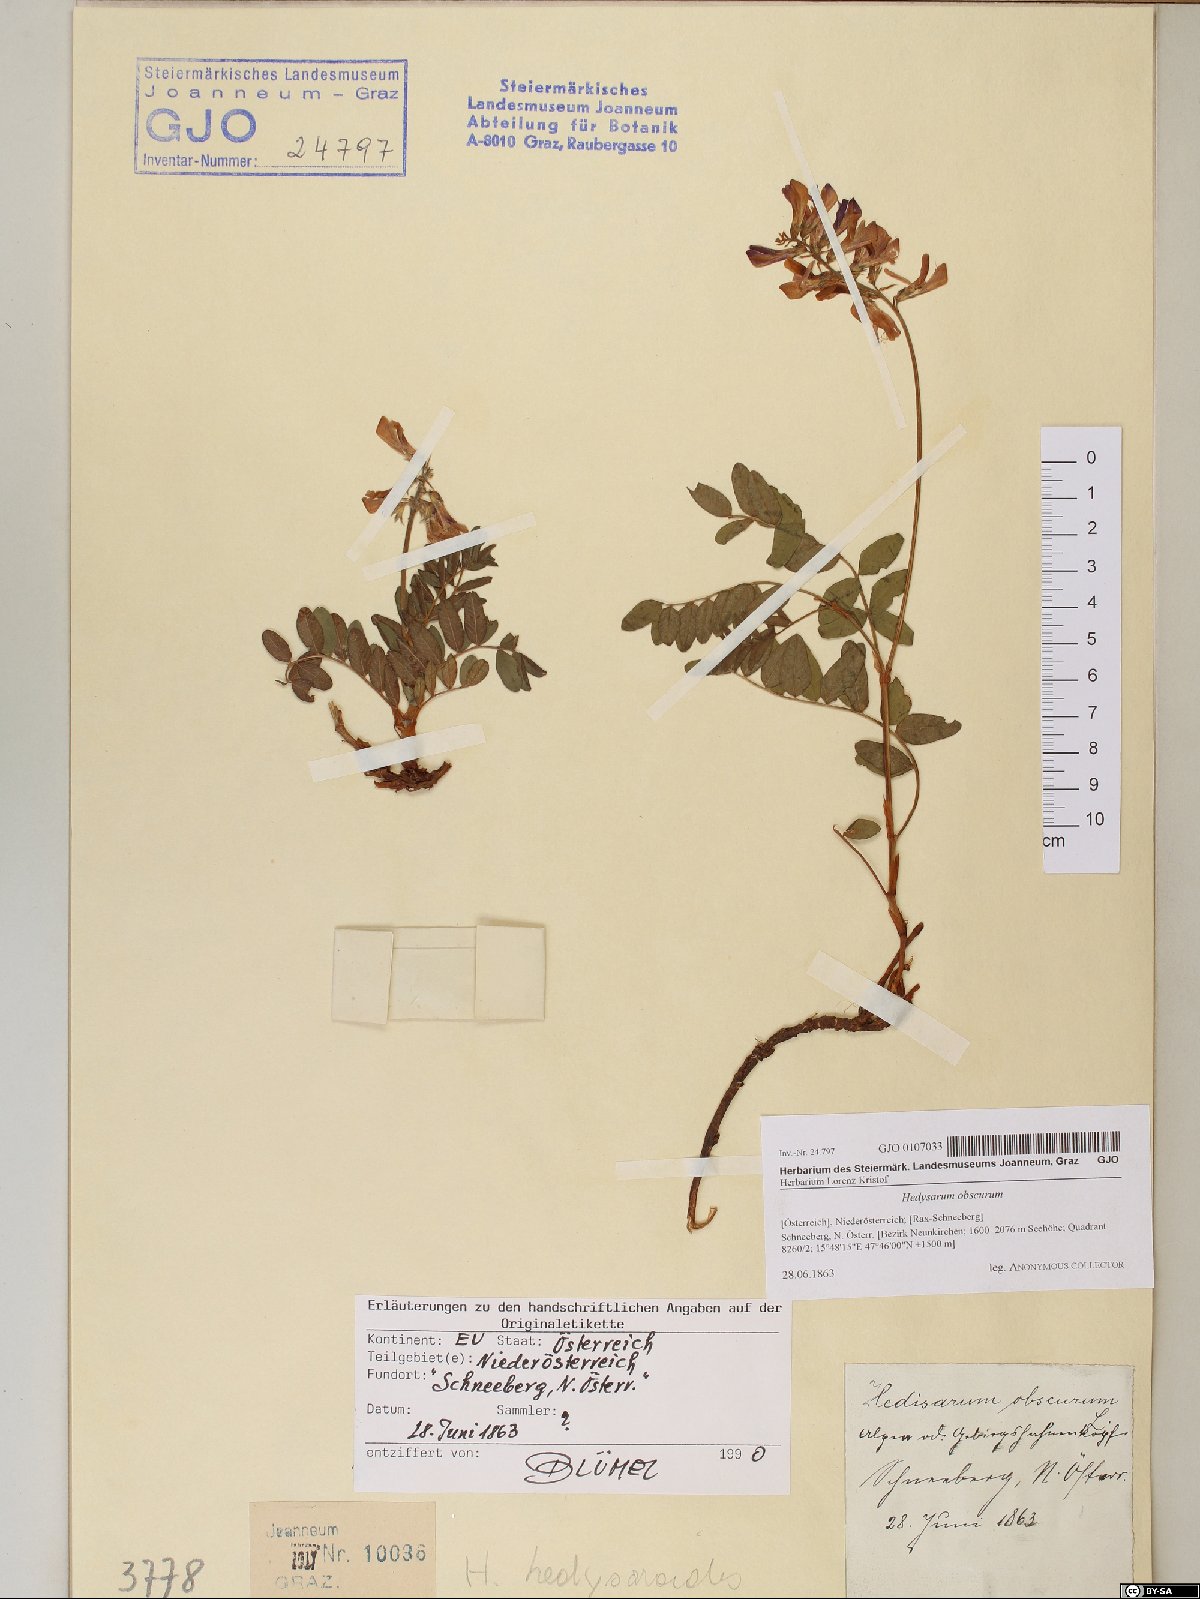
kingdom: Plantae
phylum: Tracheophyta
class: Magnoliopsida
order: Fabales
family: Fabaceae
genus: Hedysarum
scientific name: Hedysarum hedysaroides
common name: Alpine french-honeysuckle
